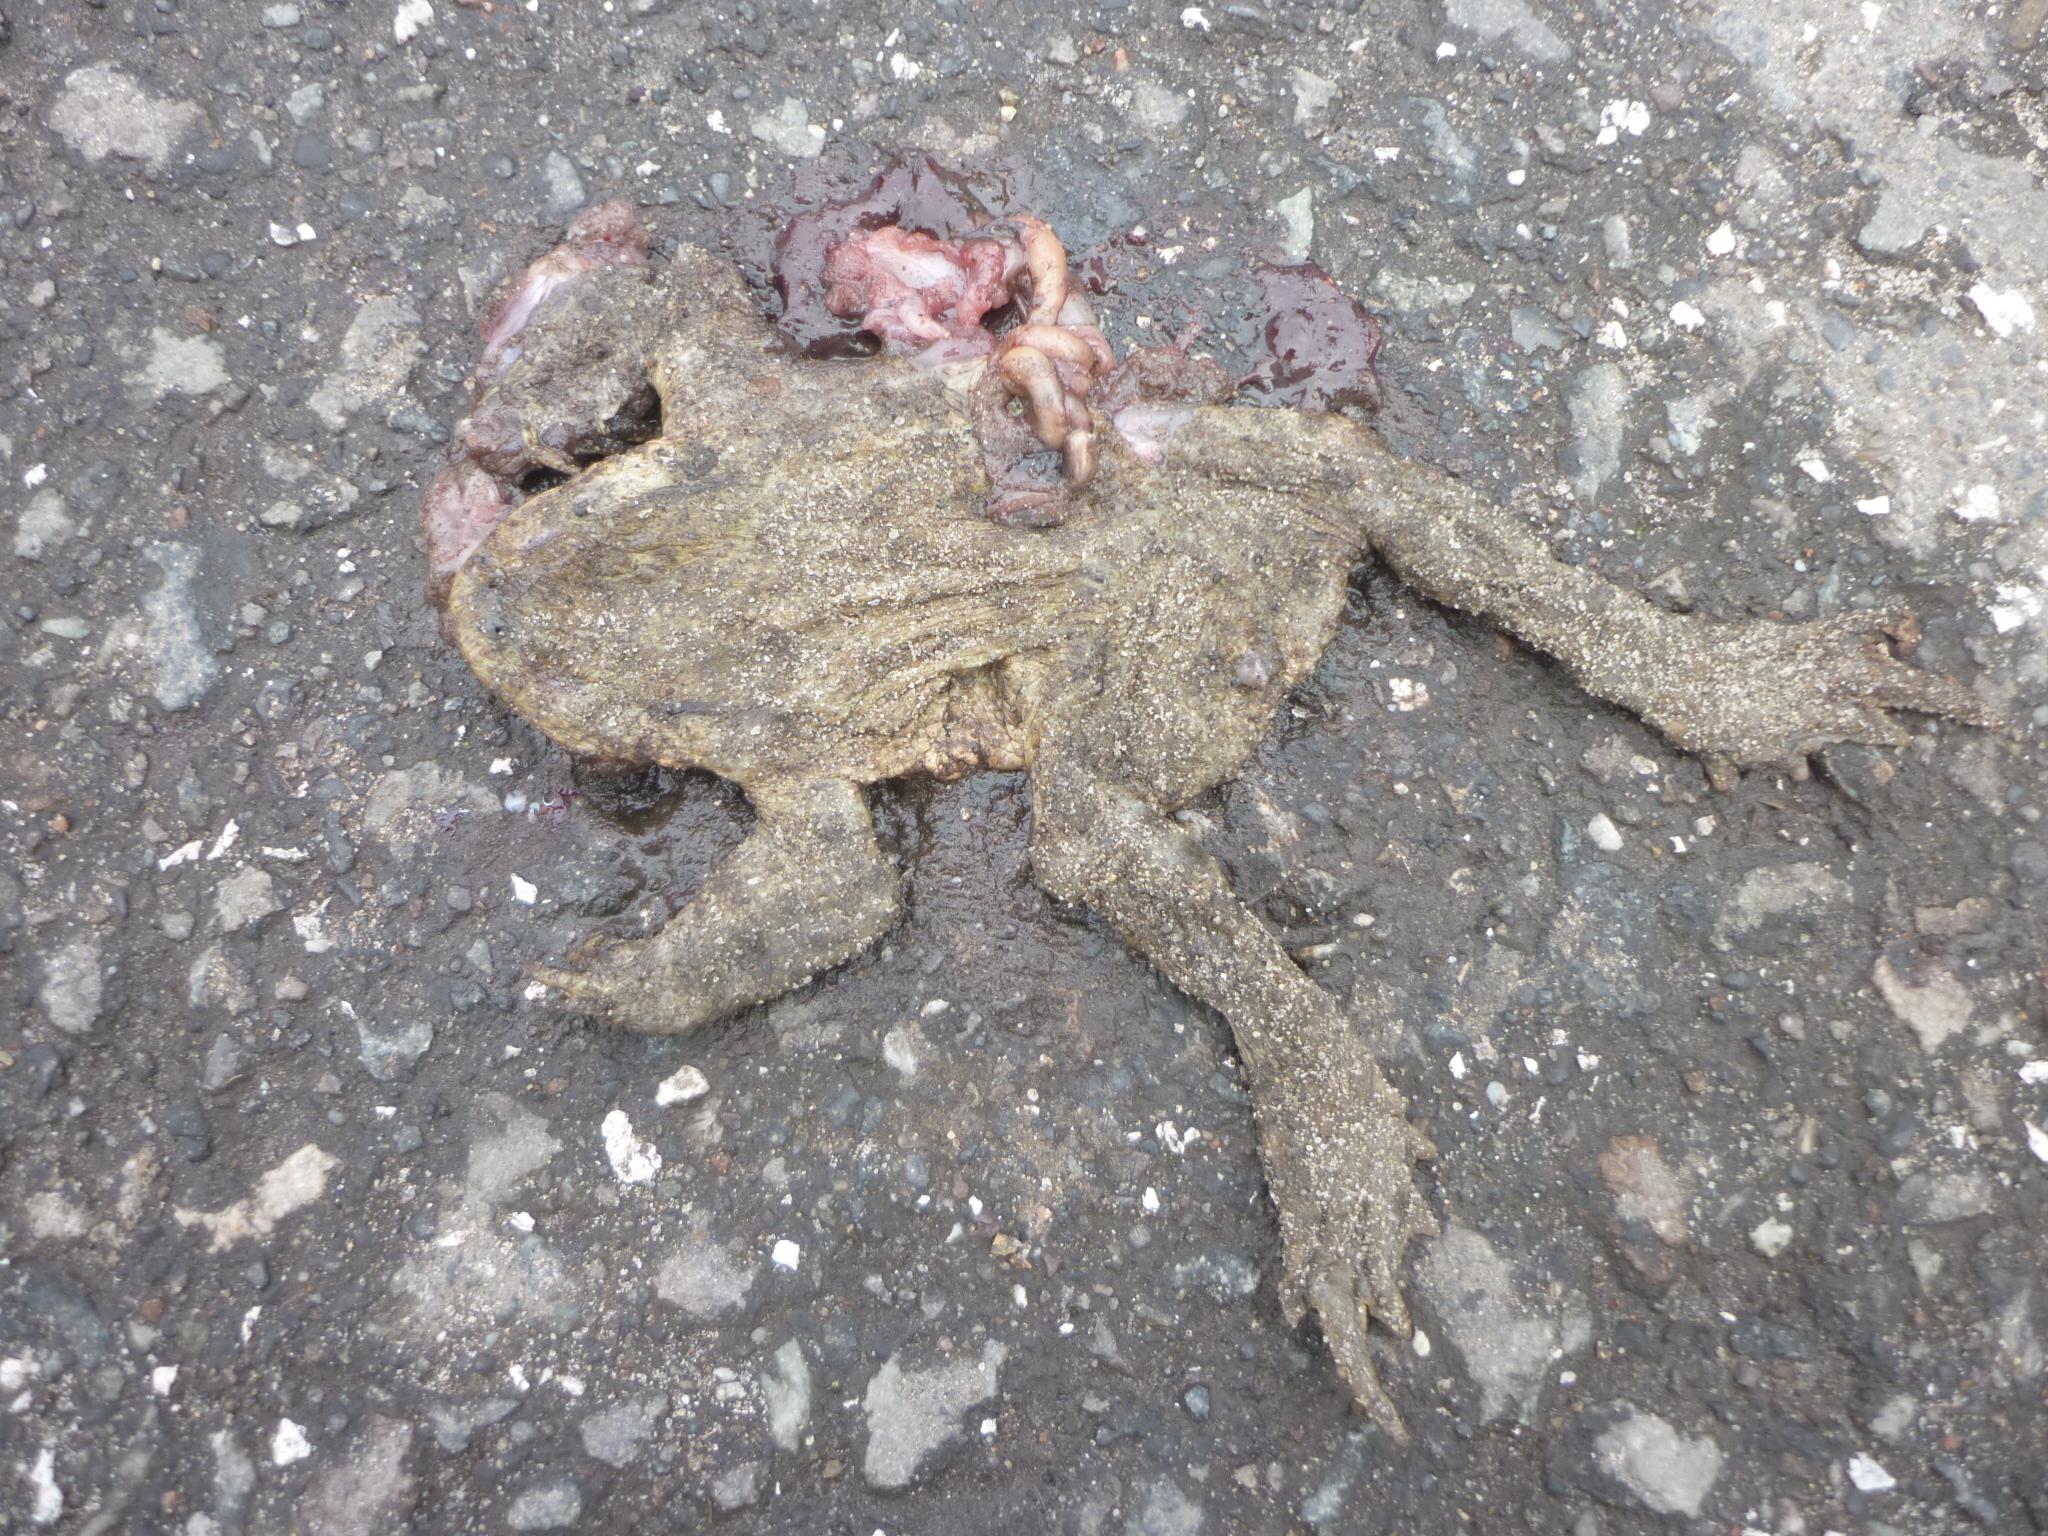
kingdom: Animalia
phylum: Chordata
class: Amphibia
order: Anura
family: Bufonidae
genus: Bufo
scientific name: Bufo bufo
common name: Common toad
